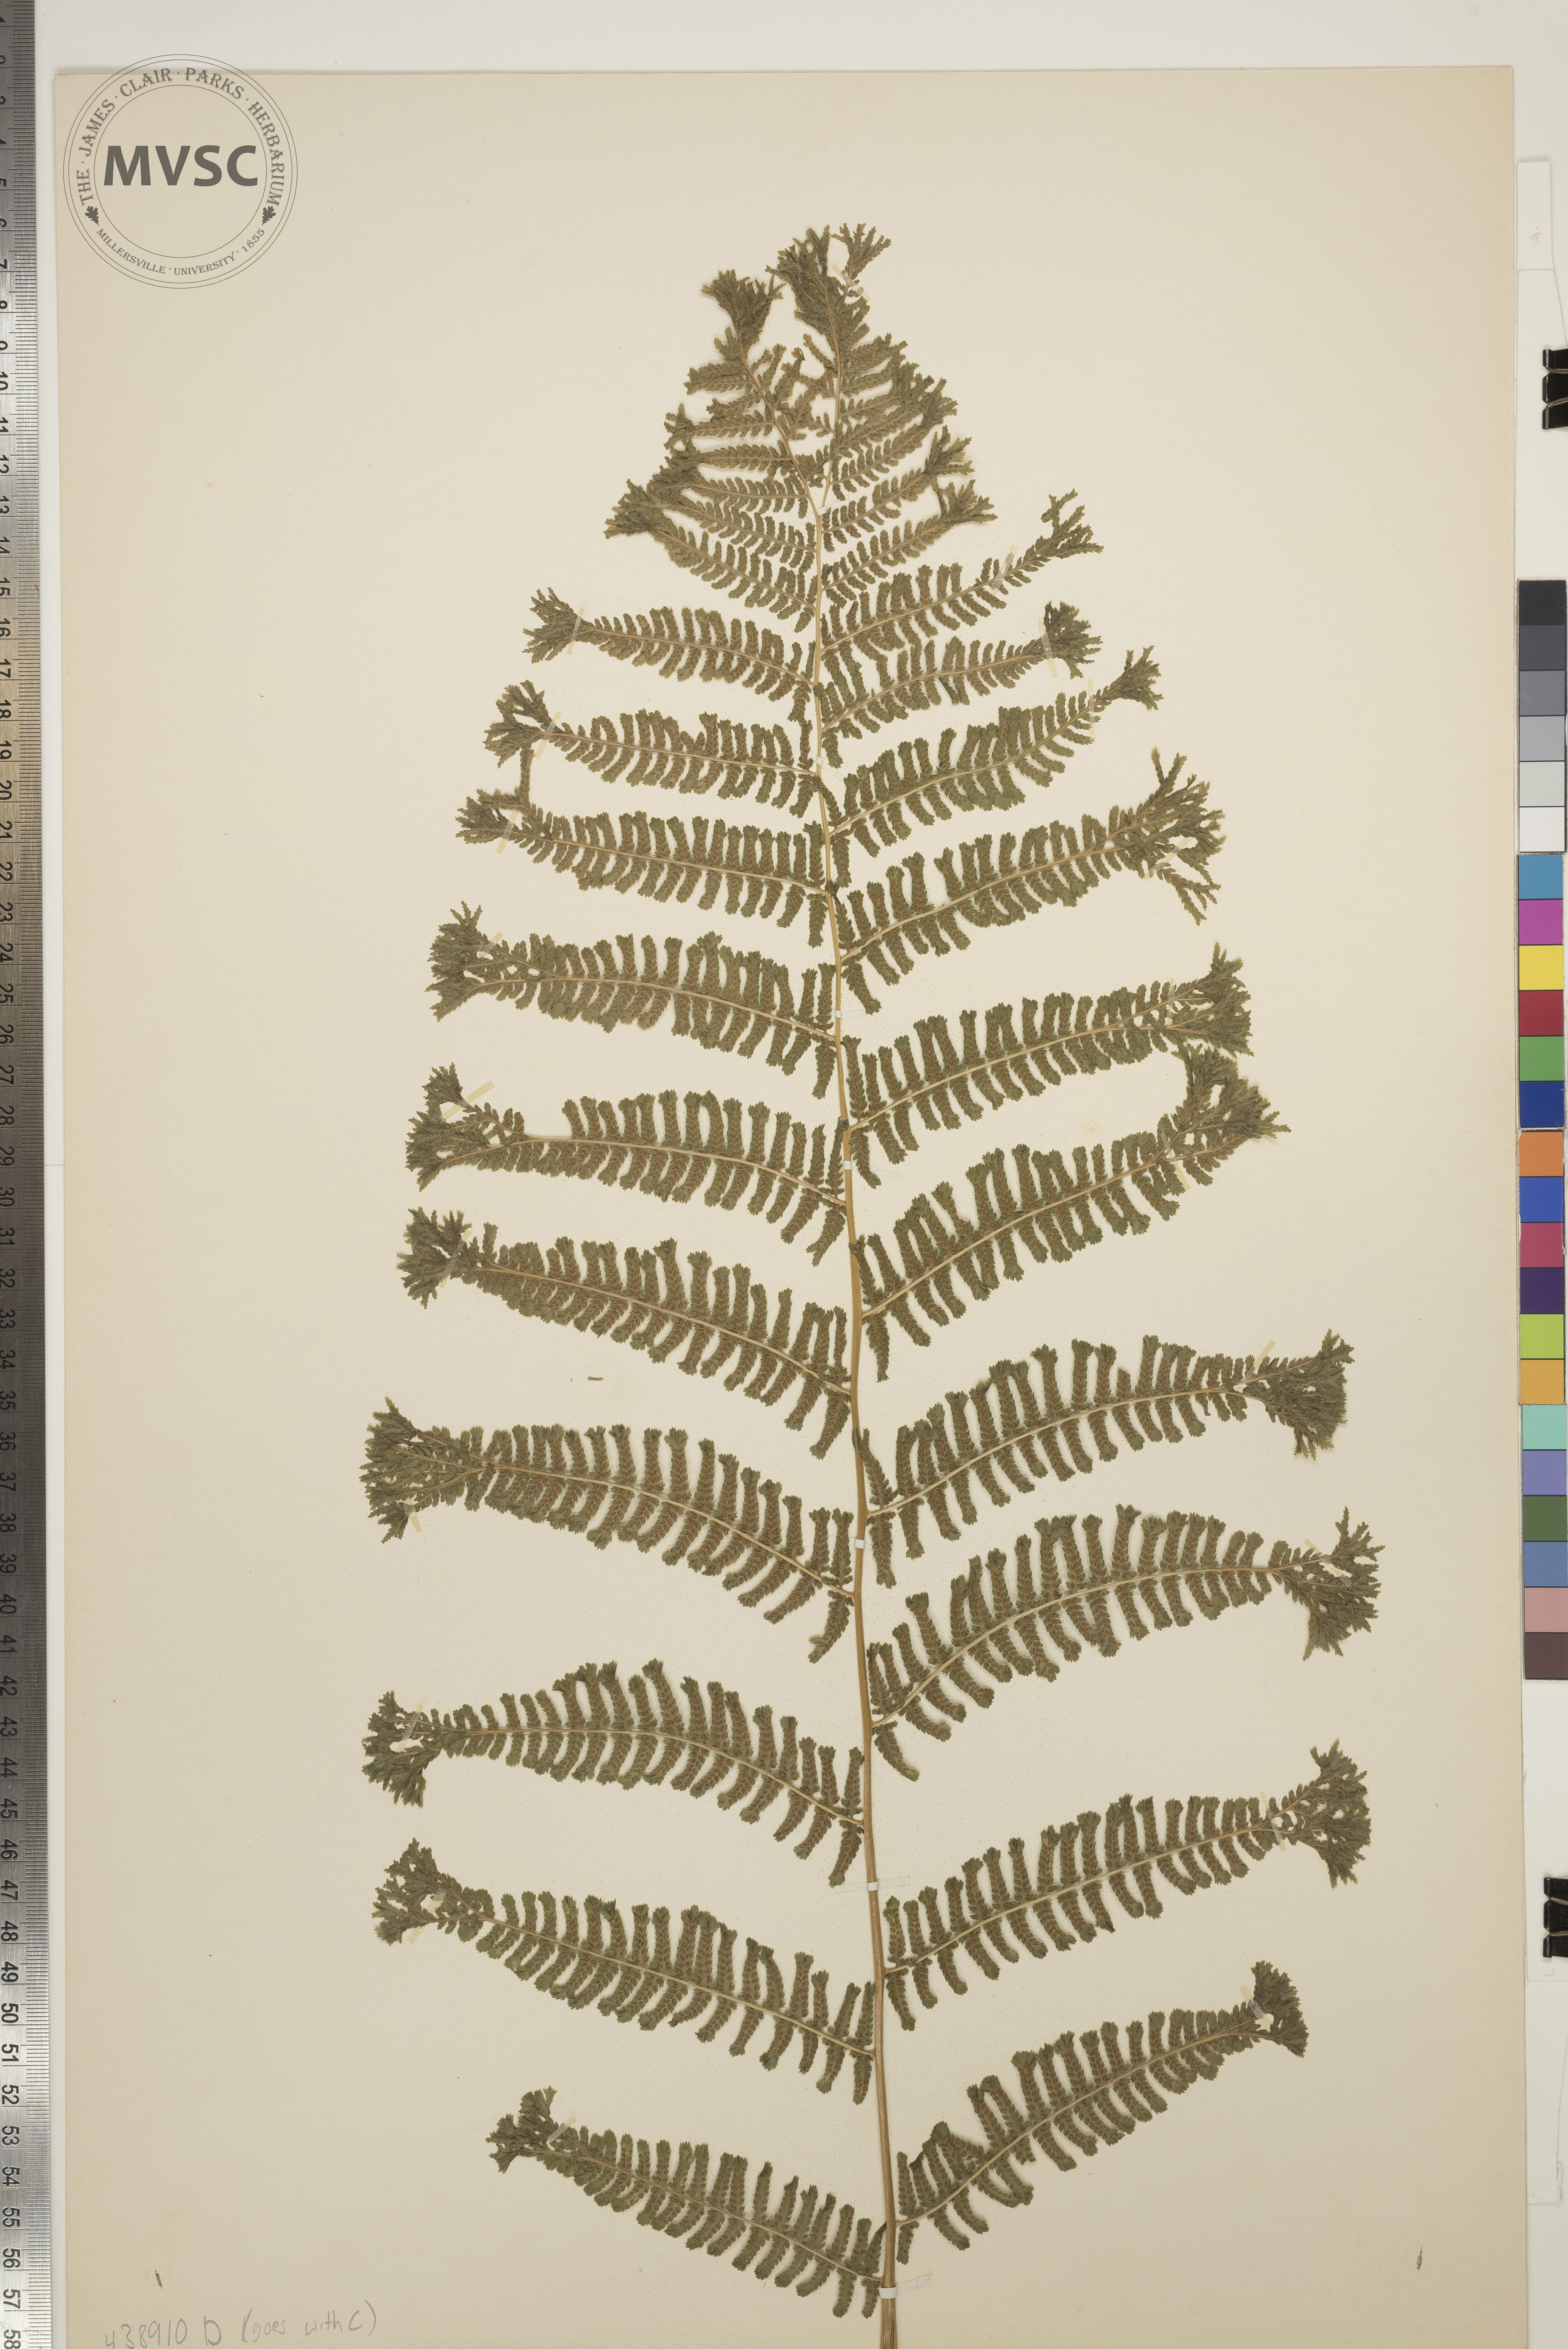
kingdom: Plantae
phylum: Tracheophyta
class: Polypodiopsida
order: Polypodiales
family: Athyriaceae
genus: Athyrium
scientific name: Athyrium filix-femina
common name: Lady fern
